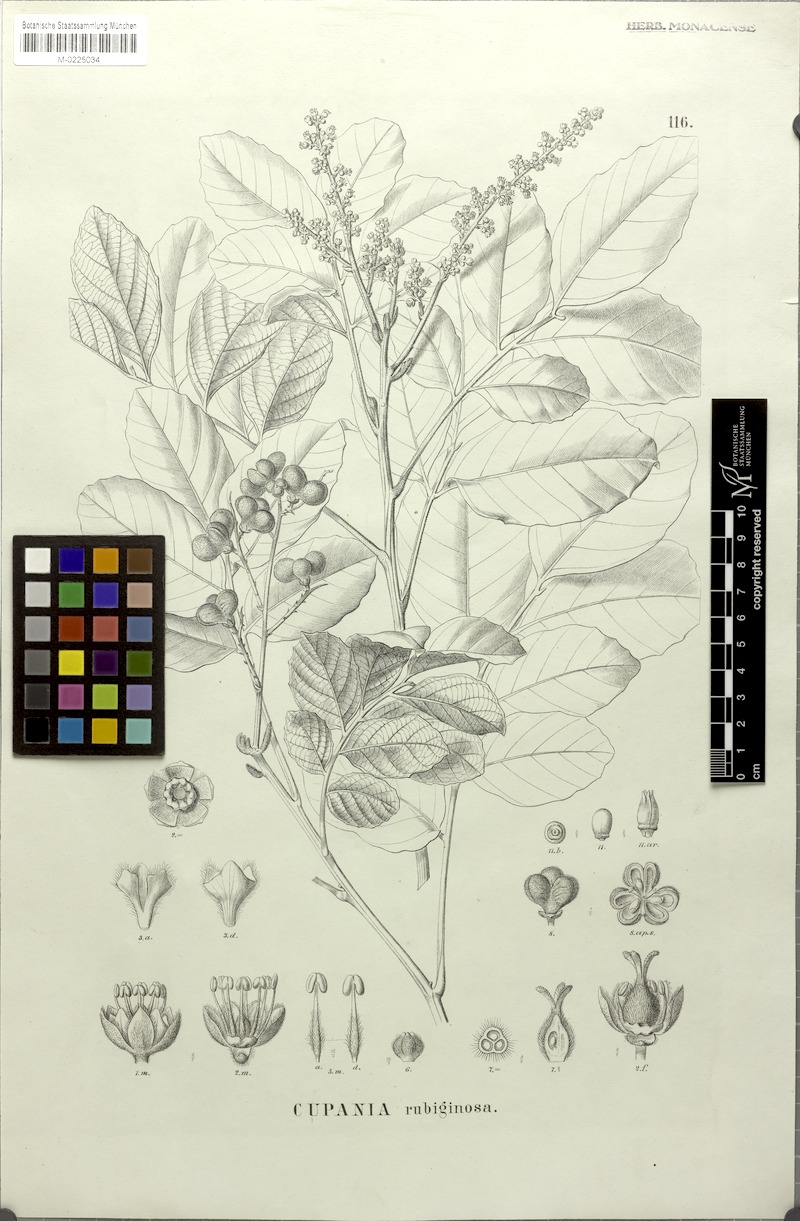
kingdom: Plantae
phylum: Tracheophyta
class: Magnoliopsida
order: Sapindales
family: Sapindaceae
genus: Cupania
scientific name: Cupania rubiginosa
